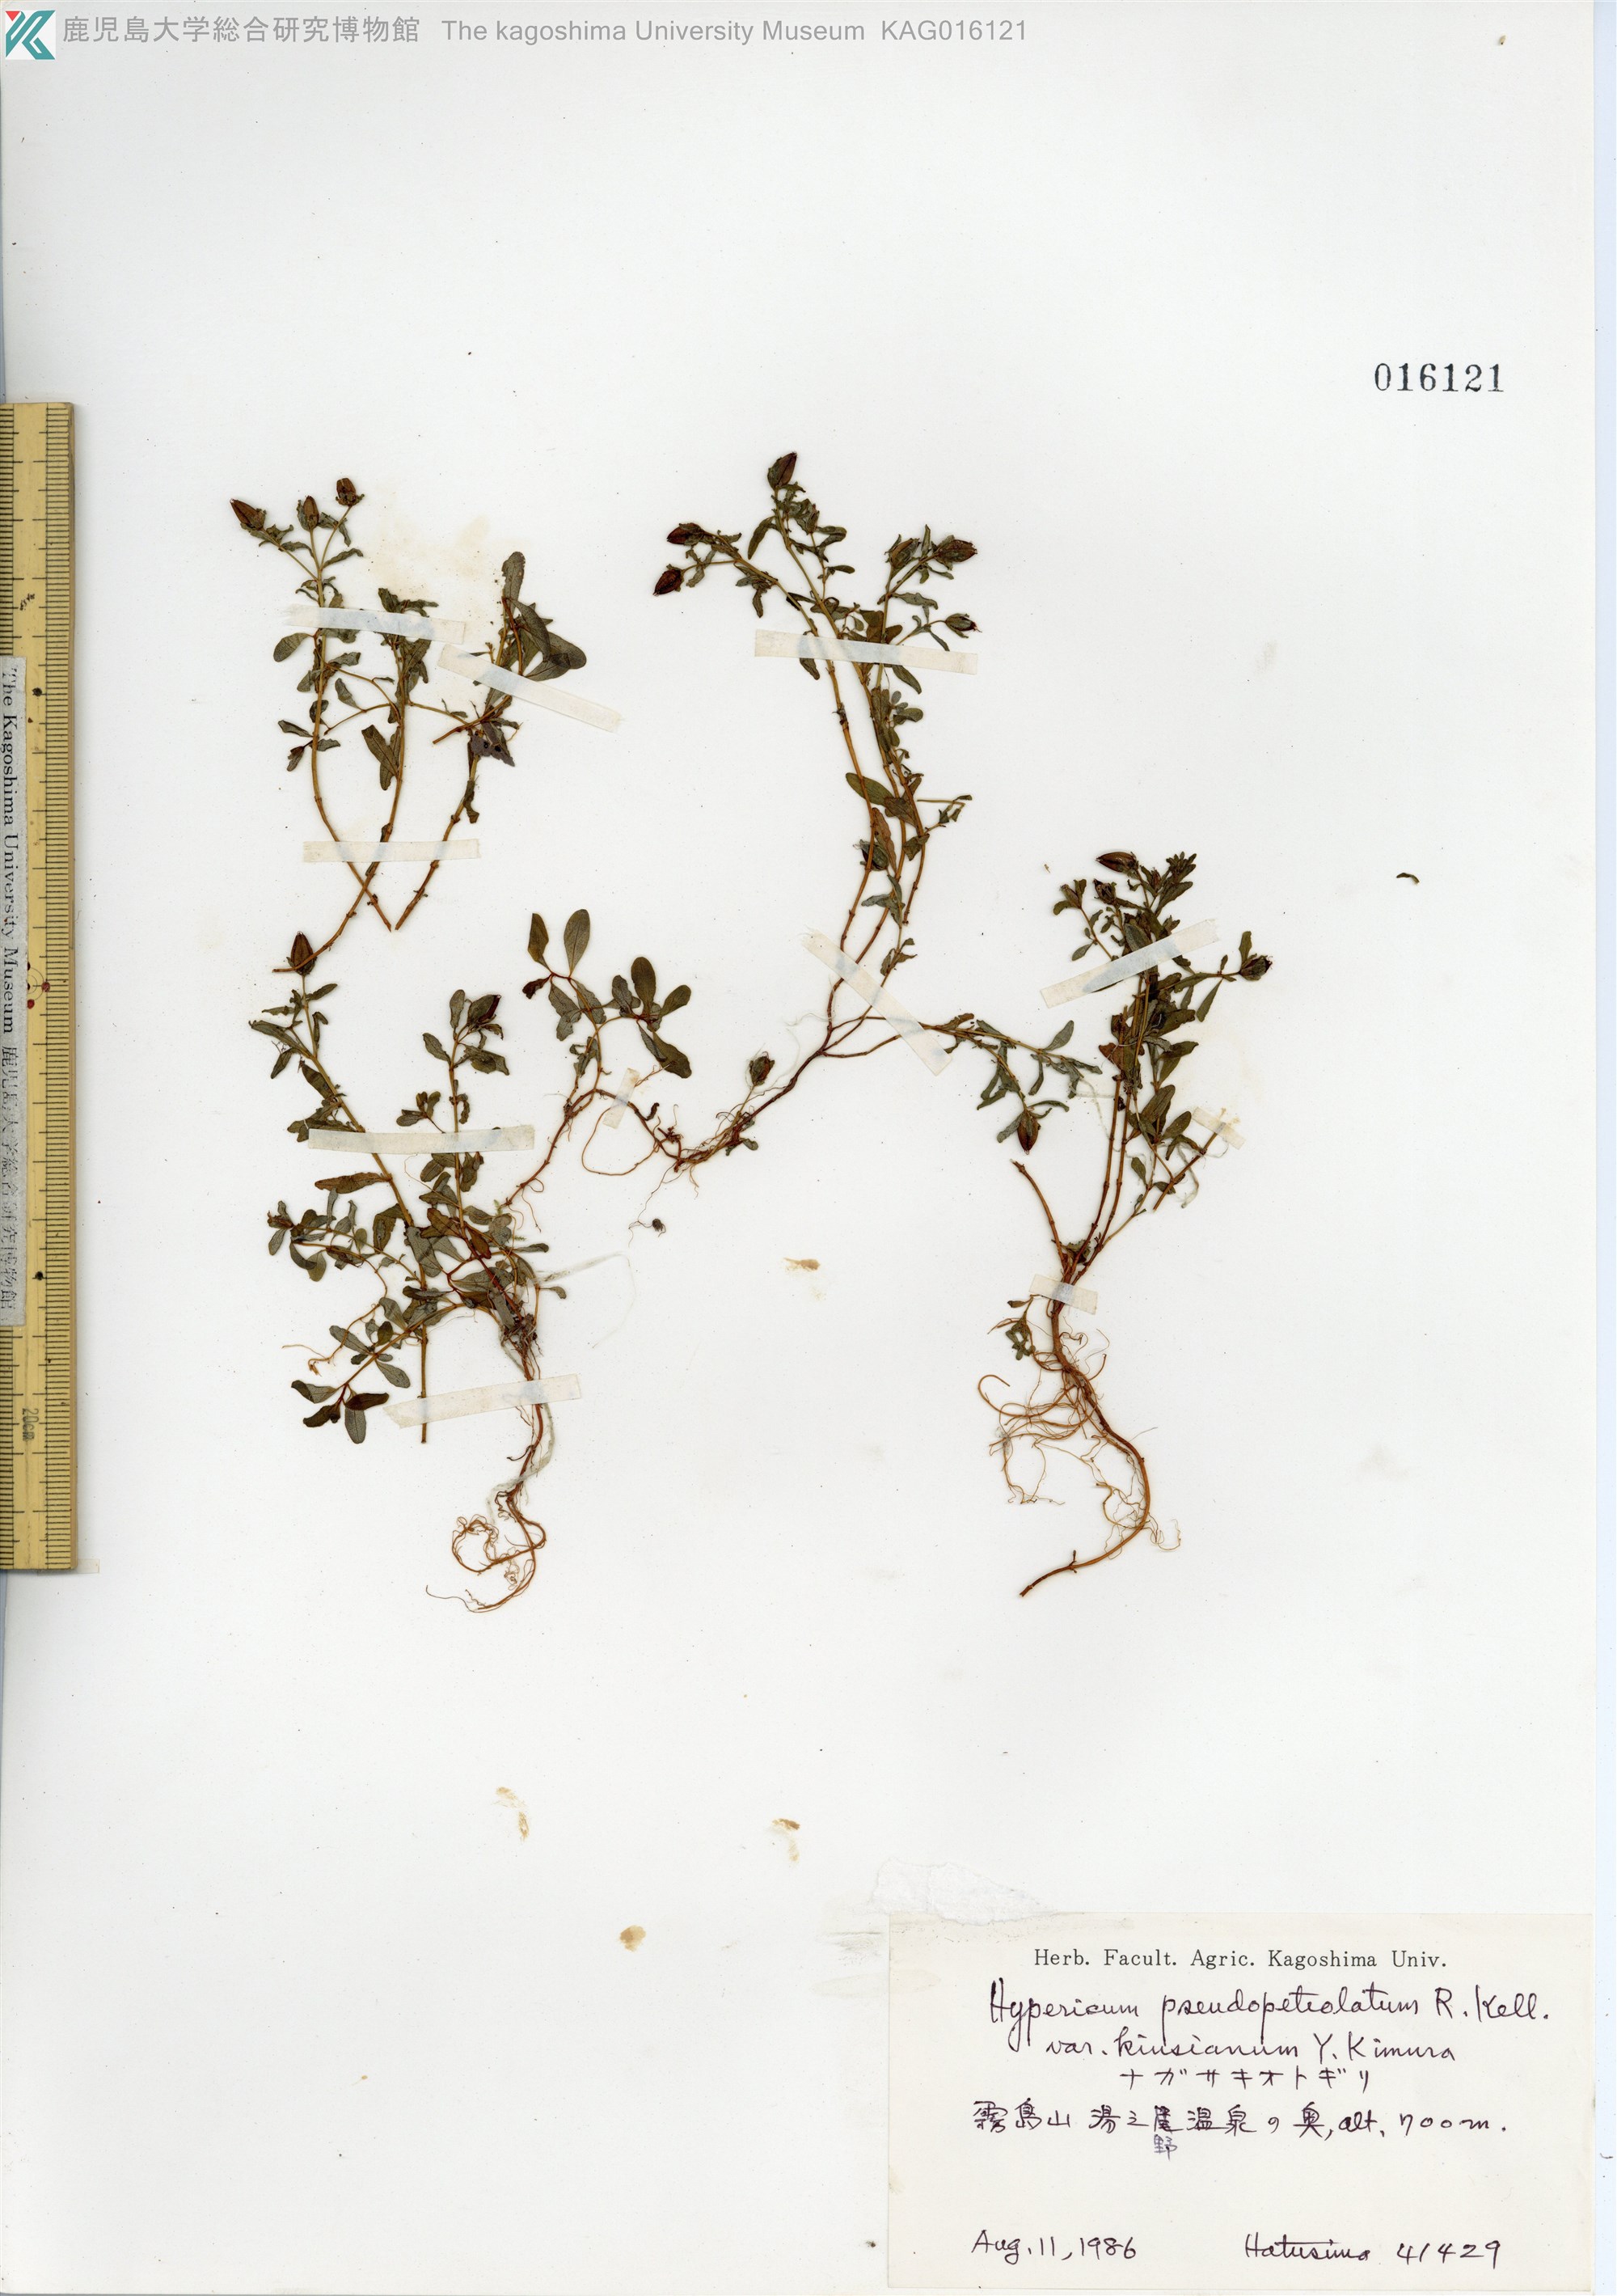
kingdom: Plantae
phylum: Tracheophyta
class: Magnoliopsida
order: Malpighiales
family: Hypericaceae
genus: Hypericum
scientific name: Hypericum pseudopetiolatum
